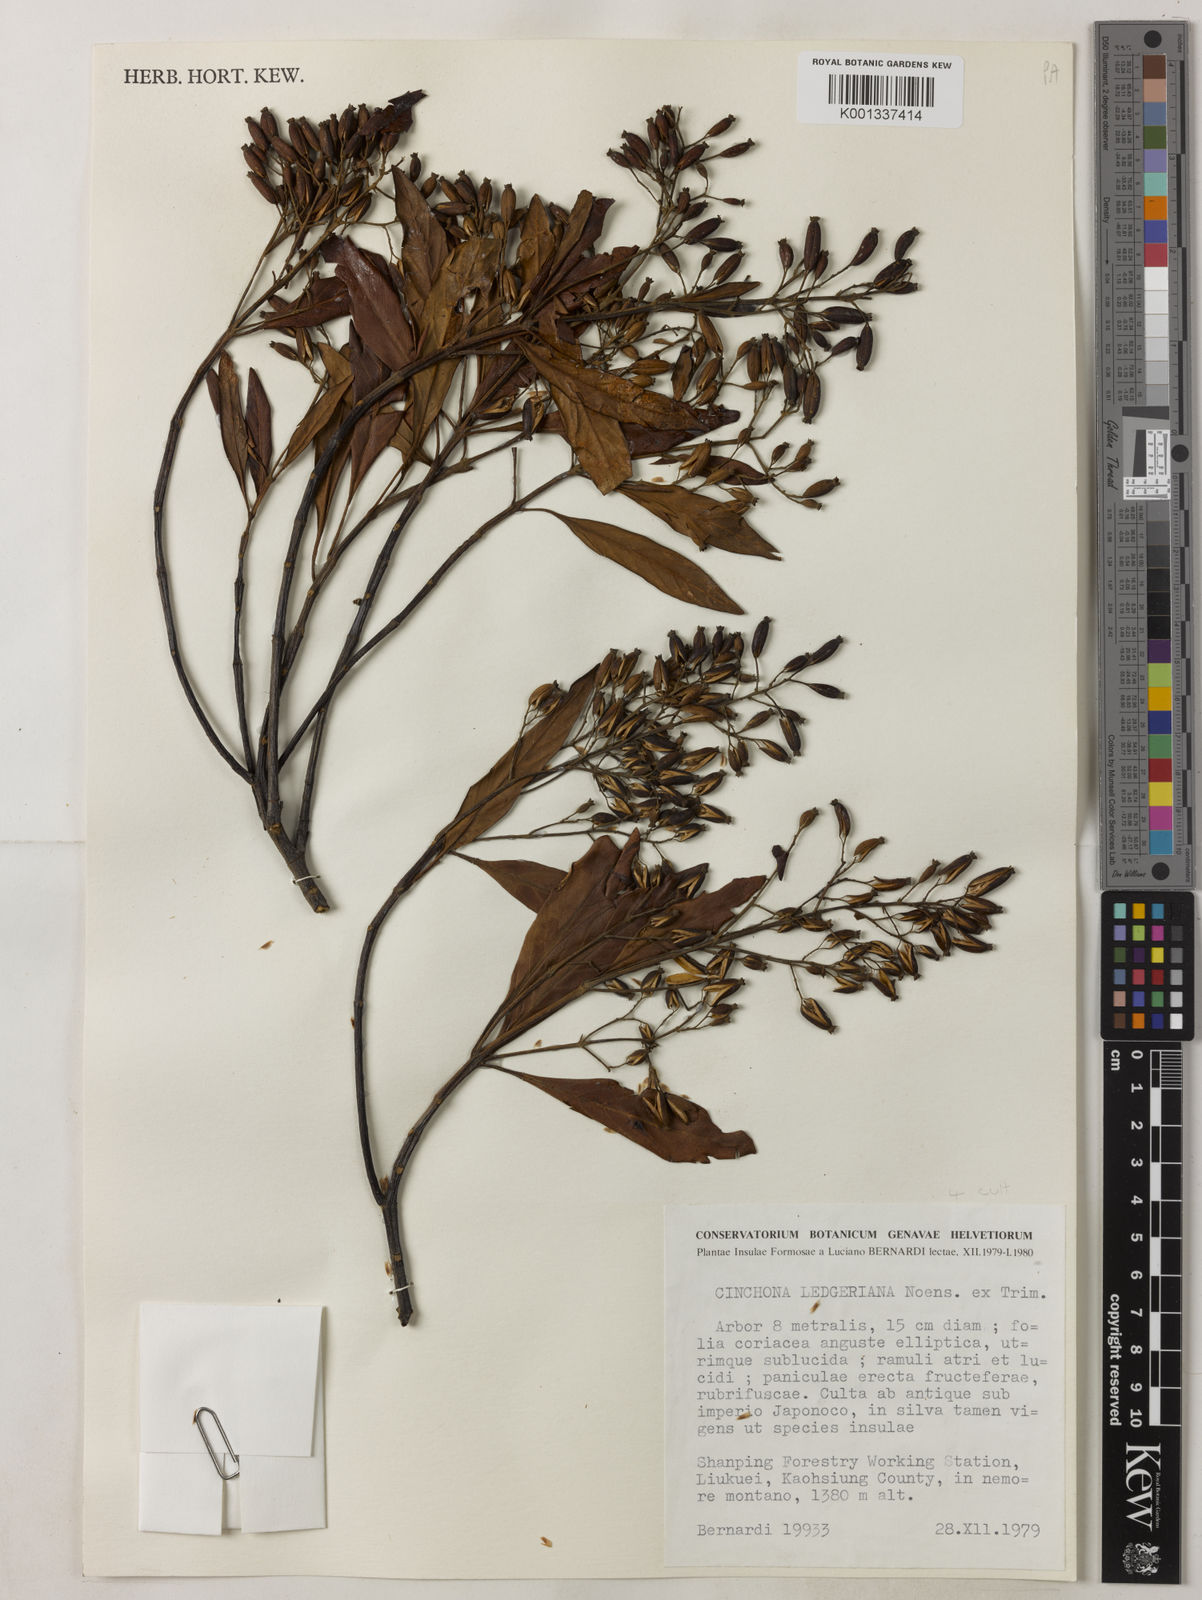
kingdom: Plantae
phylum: Tracheophyta
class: Magnoliopsida
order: Gentianales
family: Rubiaceae
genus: Cinchona
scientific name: Cinchona calisaya
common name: Ledgerbark
